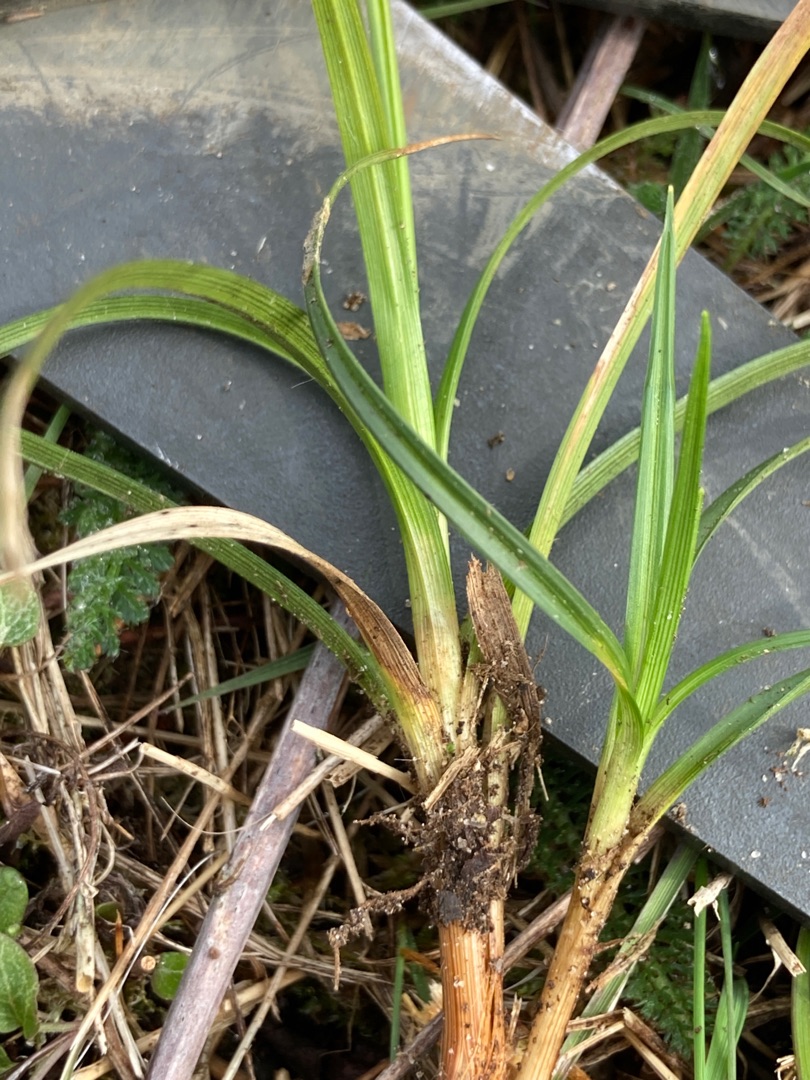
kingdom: Plantae
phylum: Tracheophyta
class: Liliopsida
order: Poales
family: Cyperaceae
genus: Carex
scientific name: Carex caryophyllea
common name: Vår-star
